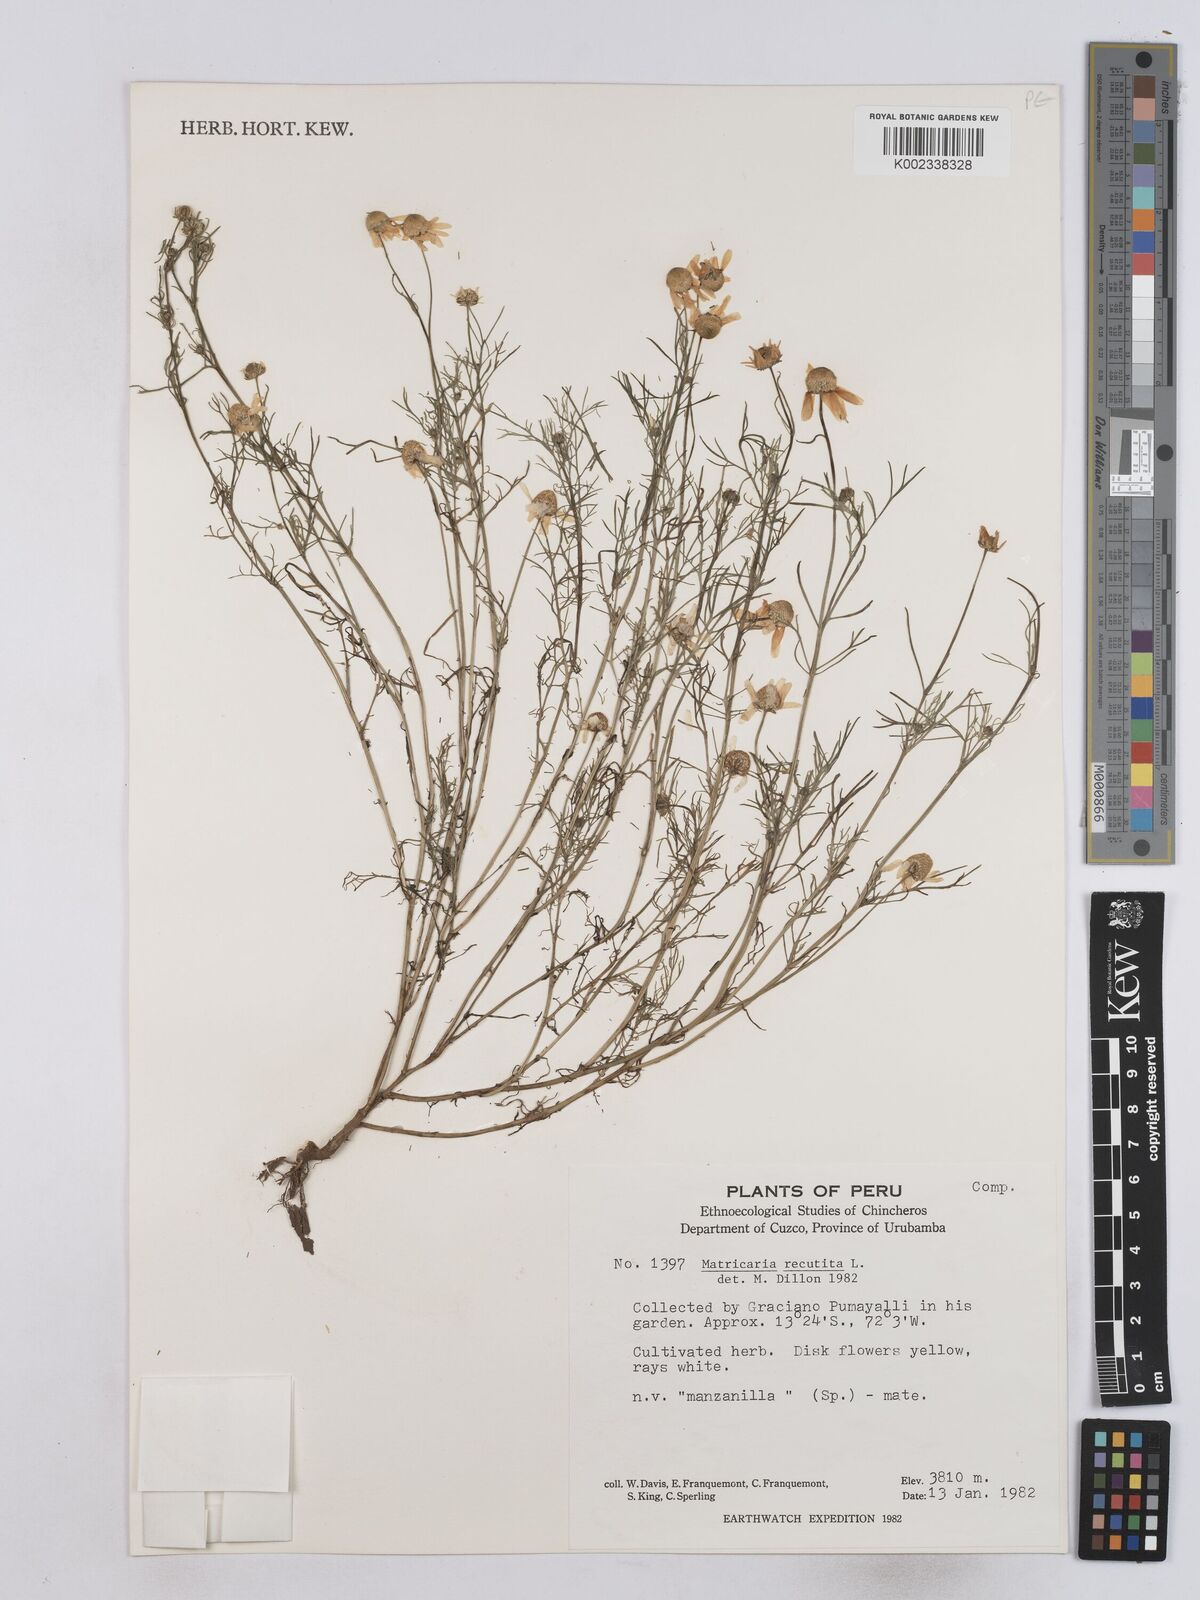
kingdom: Plantae
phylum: Tracheophyta
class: Magnoliopsida
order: Asterales
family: Asteraceae
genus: Matricaria
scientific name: Matricaria chamomilla
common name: Scented mayweed
